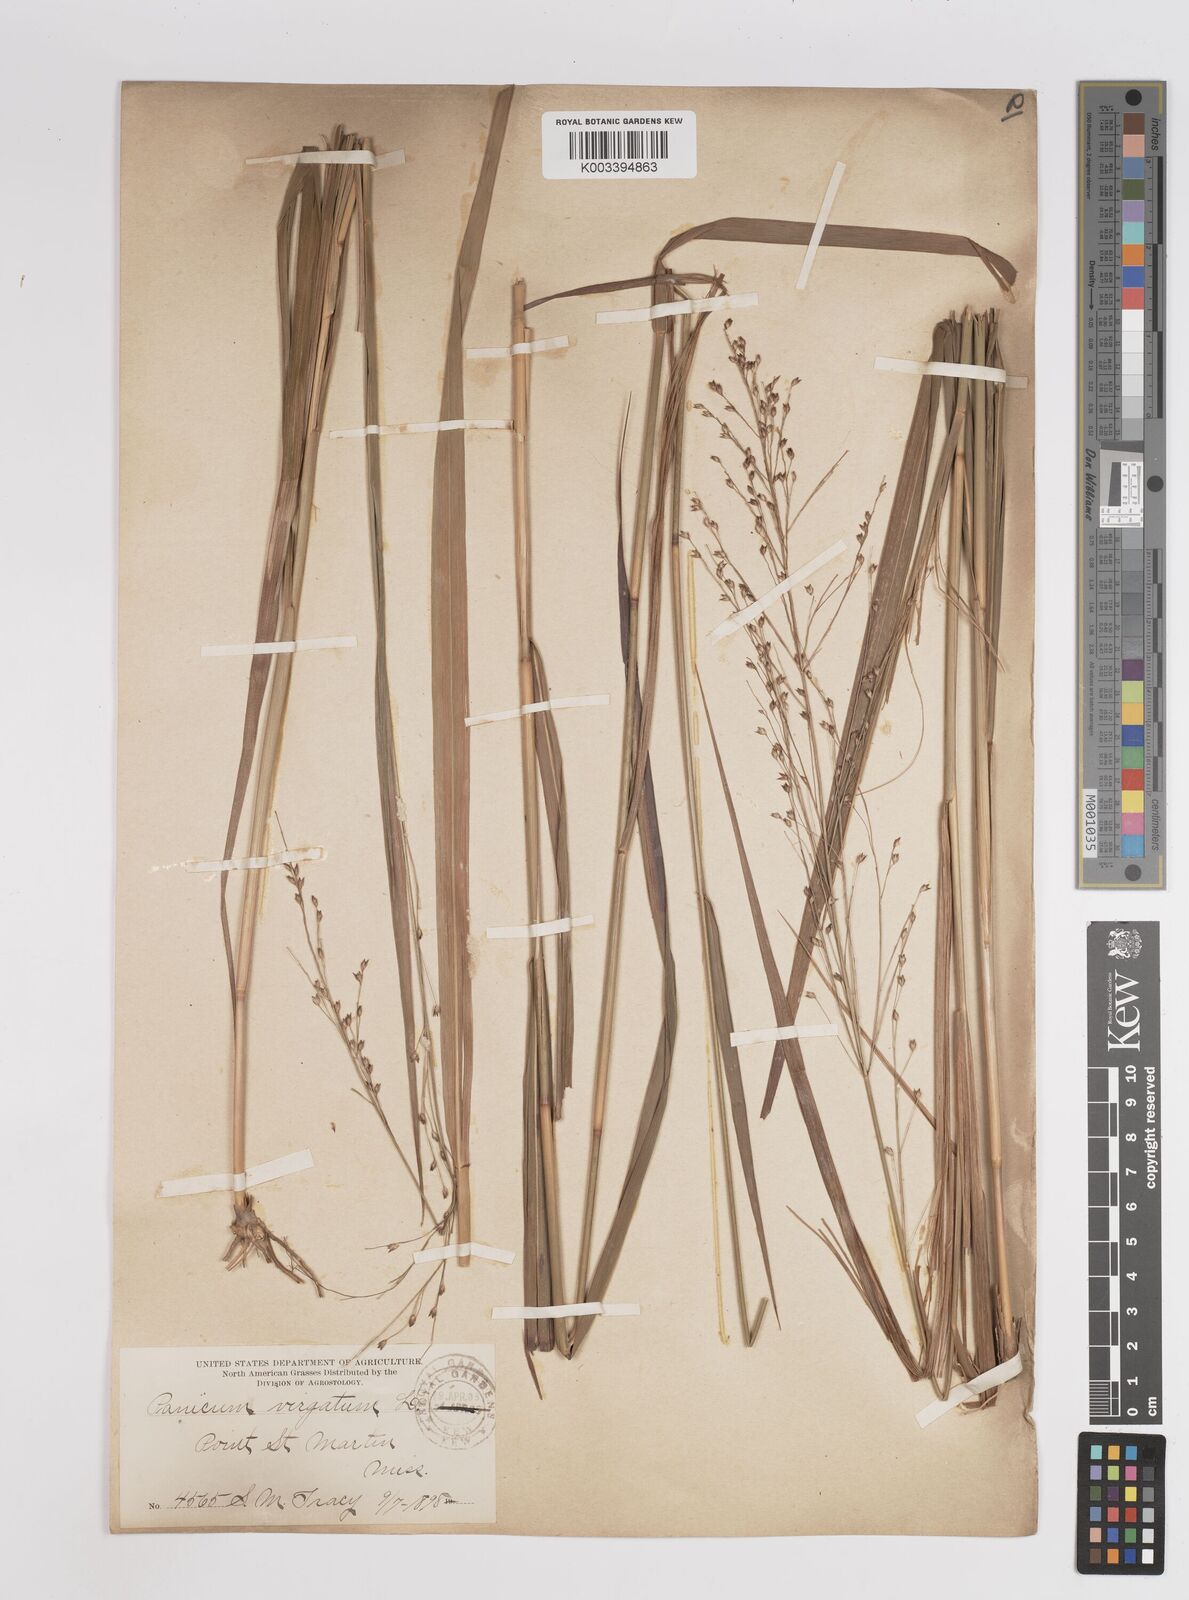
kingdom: Plantae
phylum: Tracheophyta
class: Liliopsida
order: Poales
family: Poaceae
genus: Panicum
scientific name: Panicum virgatum
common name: Switchgrass
